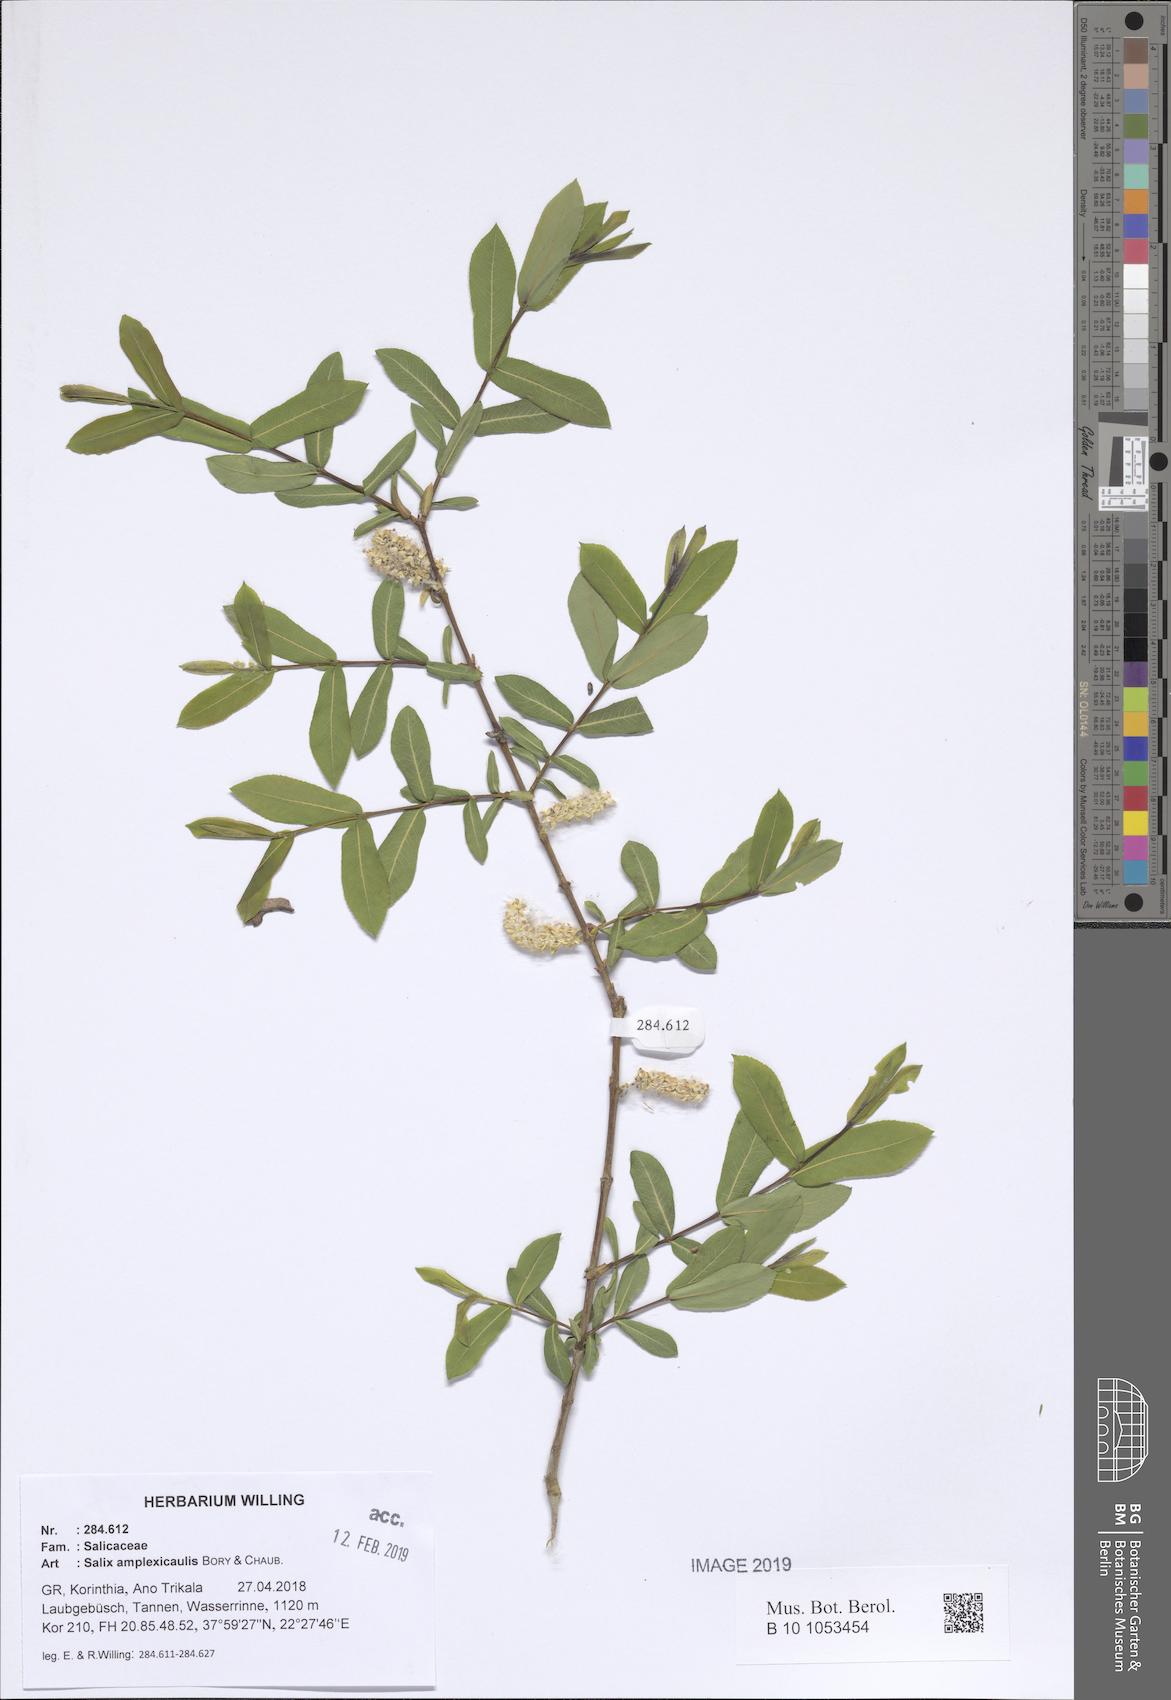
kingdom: Plantae
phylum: Tracheophyta
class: Magnoliopsida
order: Malpighiales
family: Salicaceae
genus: Salix
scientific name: Salix amplexicaulis
